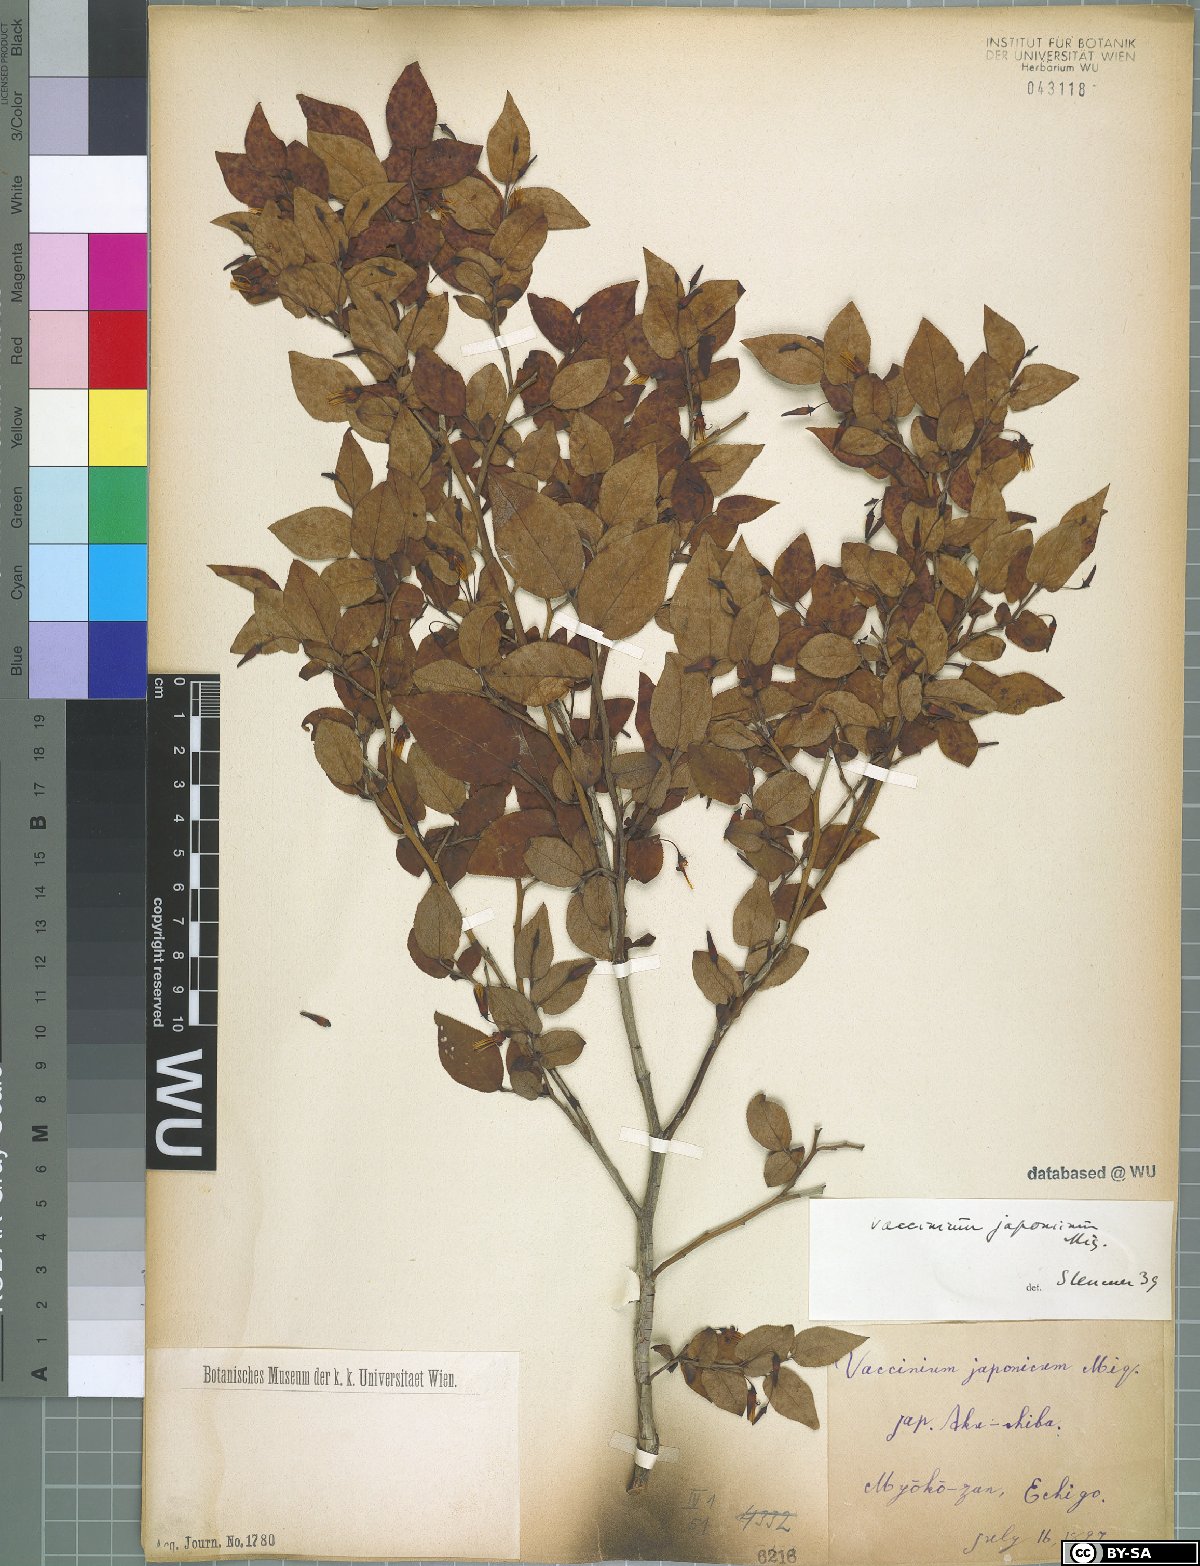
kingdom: Plantae
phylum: Tracheophyta
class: Magnoliopsida
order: Ericales
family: Ericaceae
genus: Vaccinium
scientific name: Vaccinium japonicum
